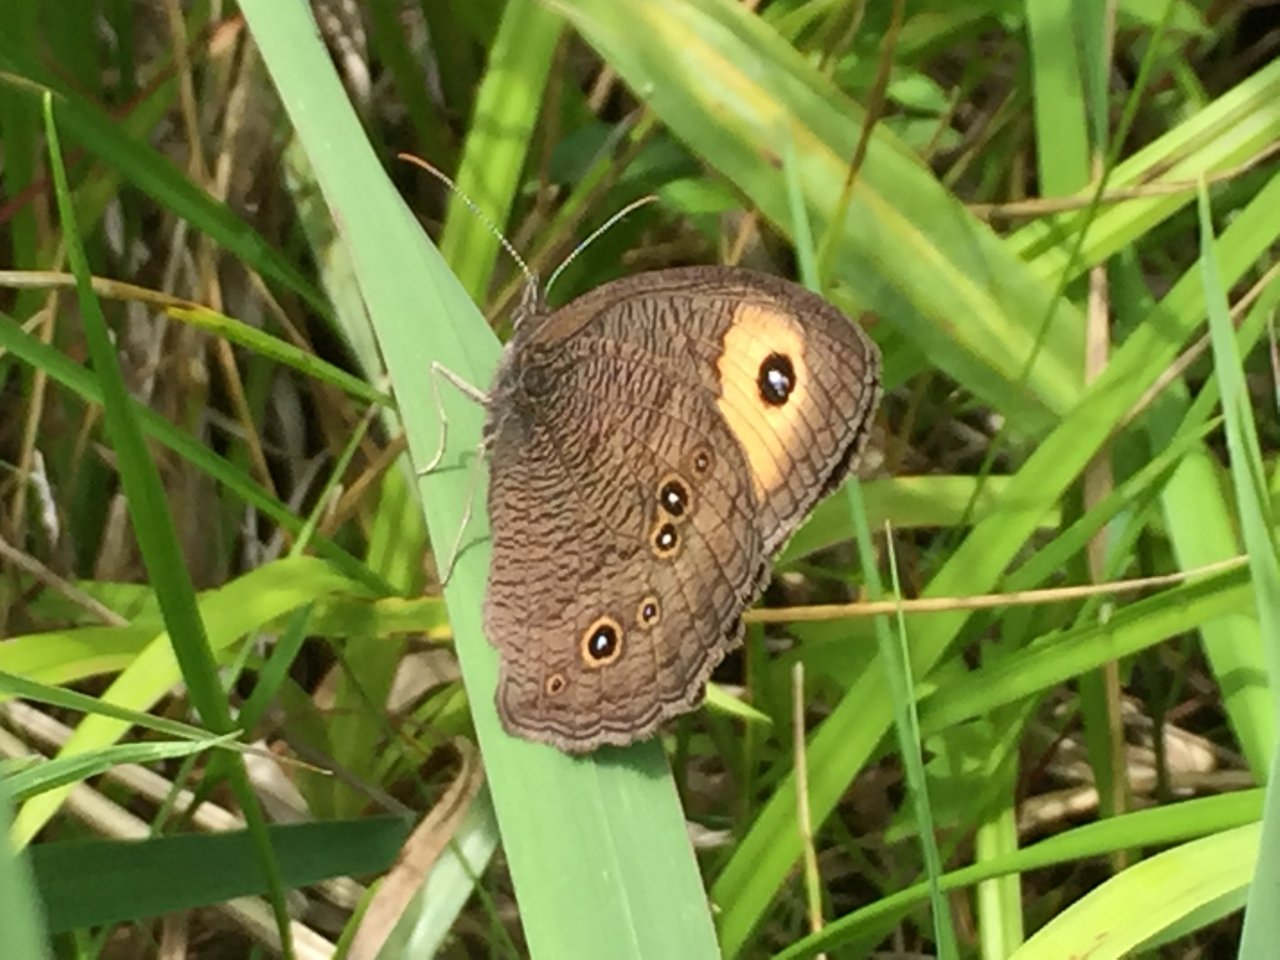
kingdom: Animalia
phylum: Arthropoda
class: Insecta
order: Lepidoptera
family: Nymphalidae
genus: Cercyonis
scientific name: Cercyonis pegala
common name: Common Wood-Nymph
